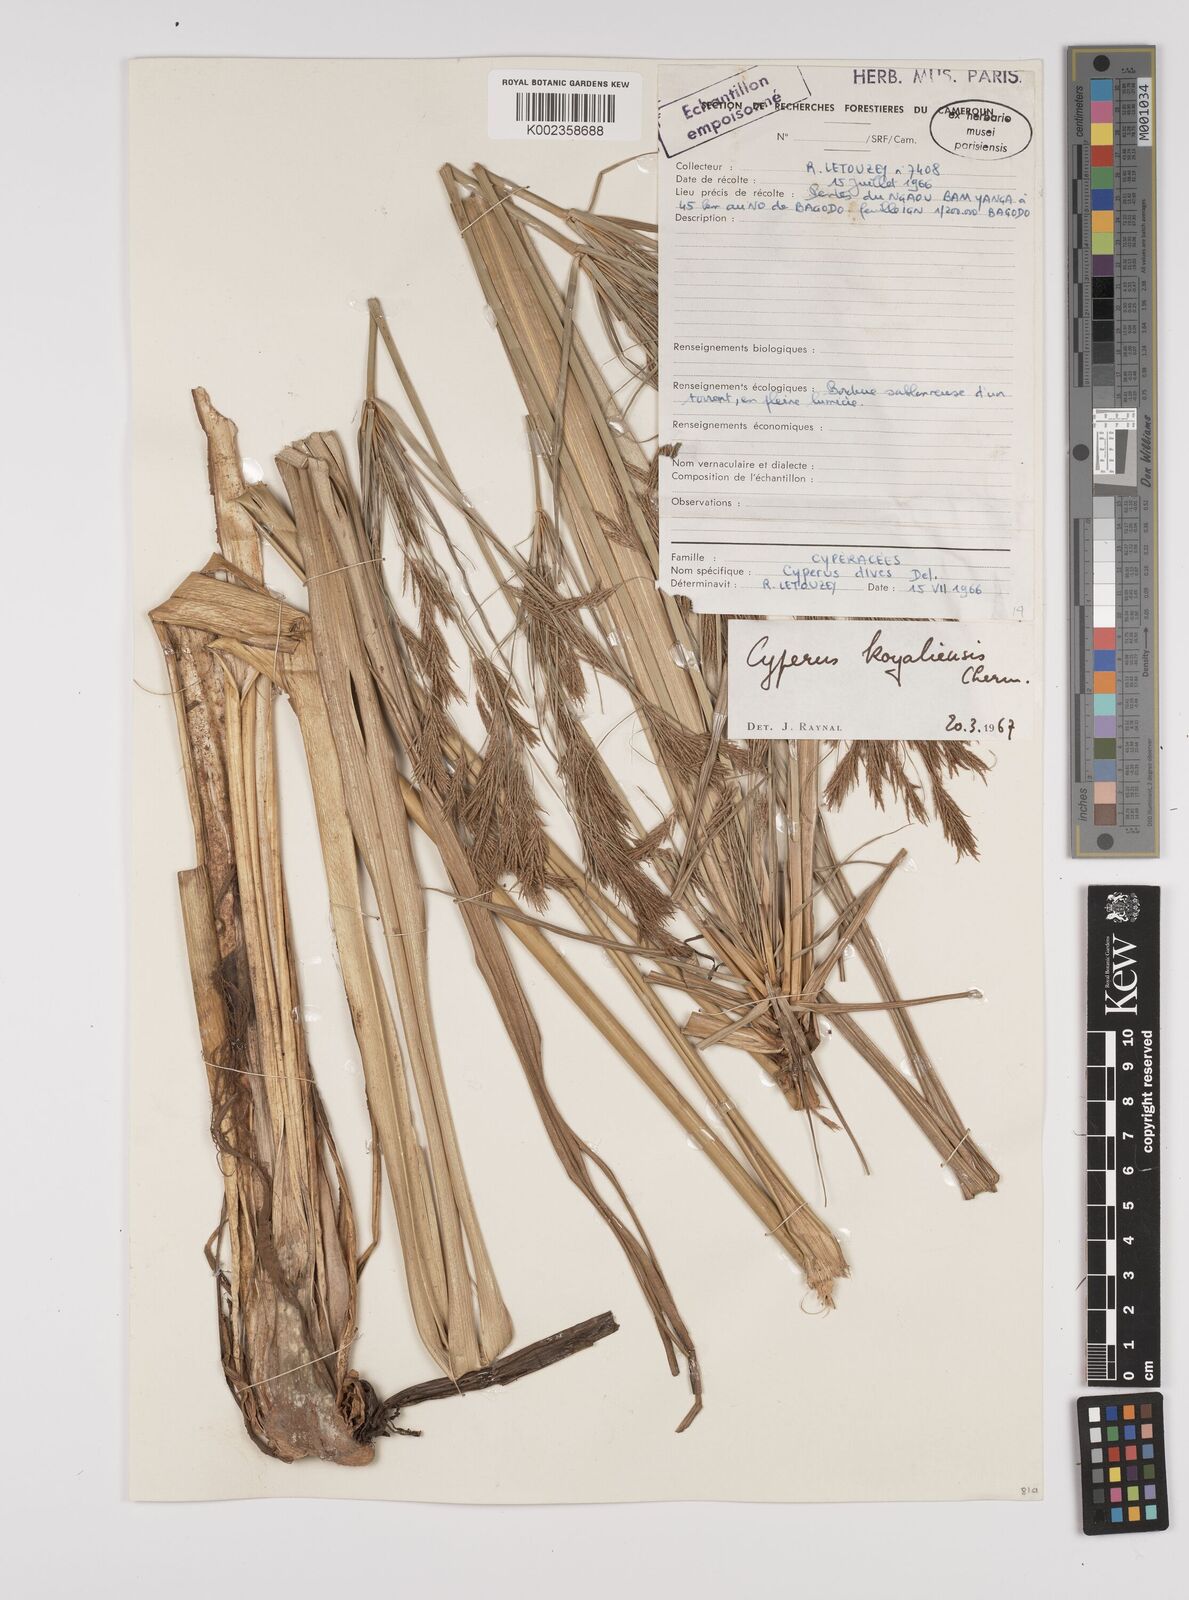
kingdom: Plantae
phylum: Tracheophyta
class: Liliopsida
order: Poales
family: Cyperaceae
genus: Cyperus
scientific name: Cyperus koyaliensis
